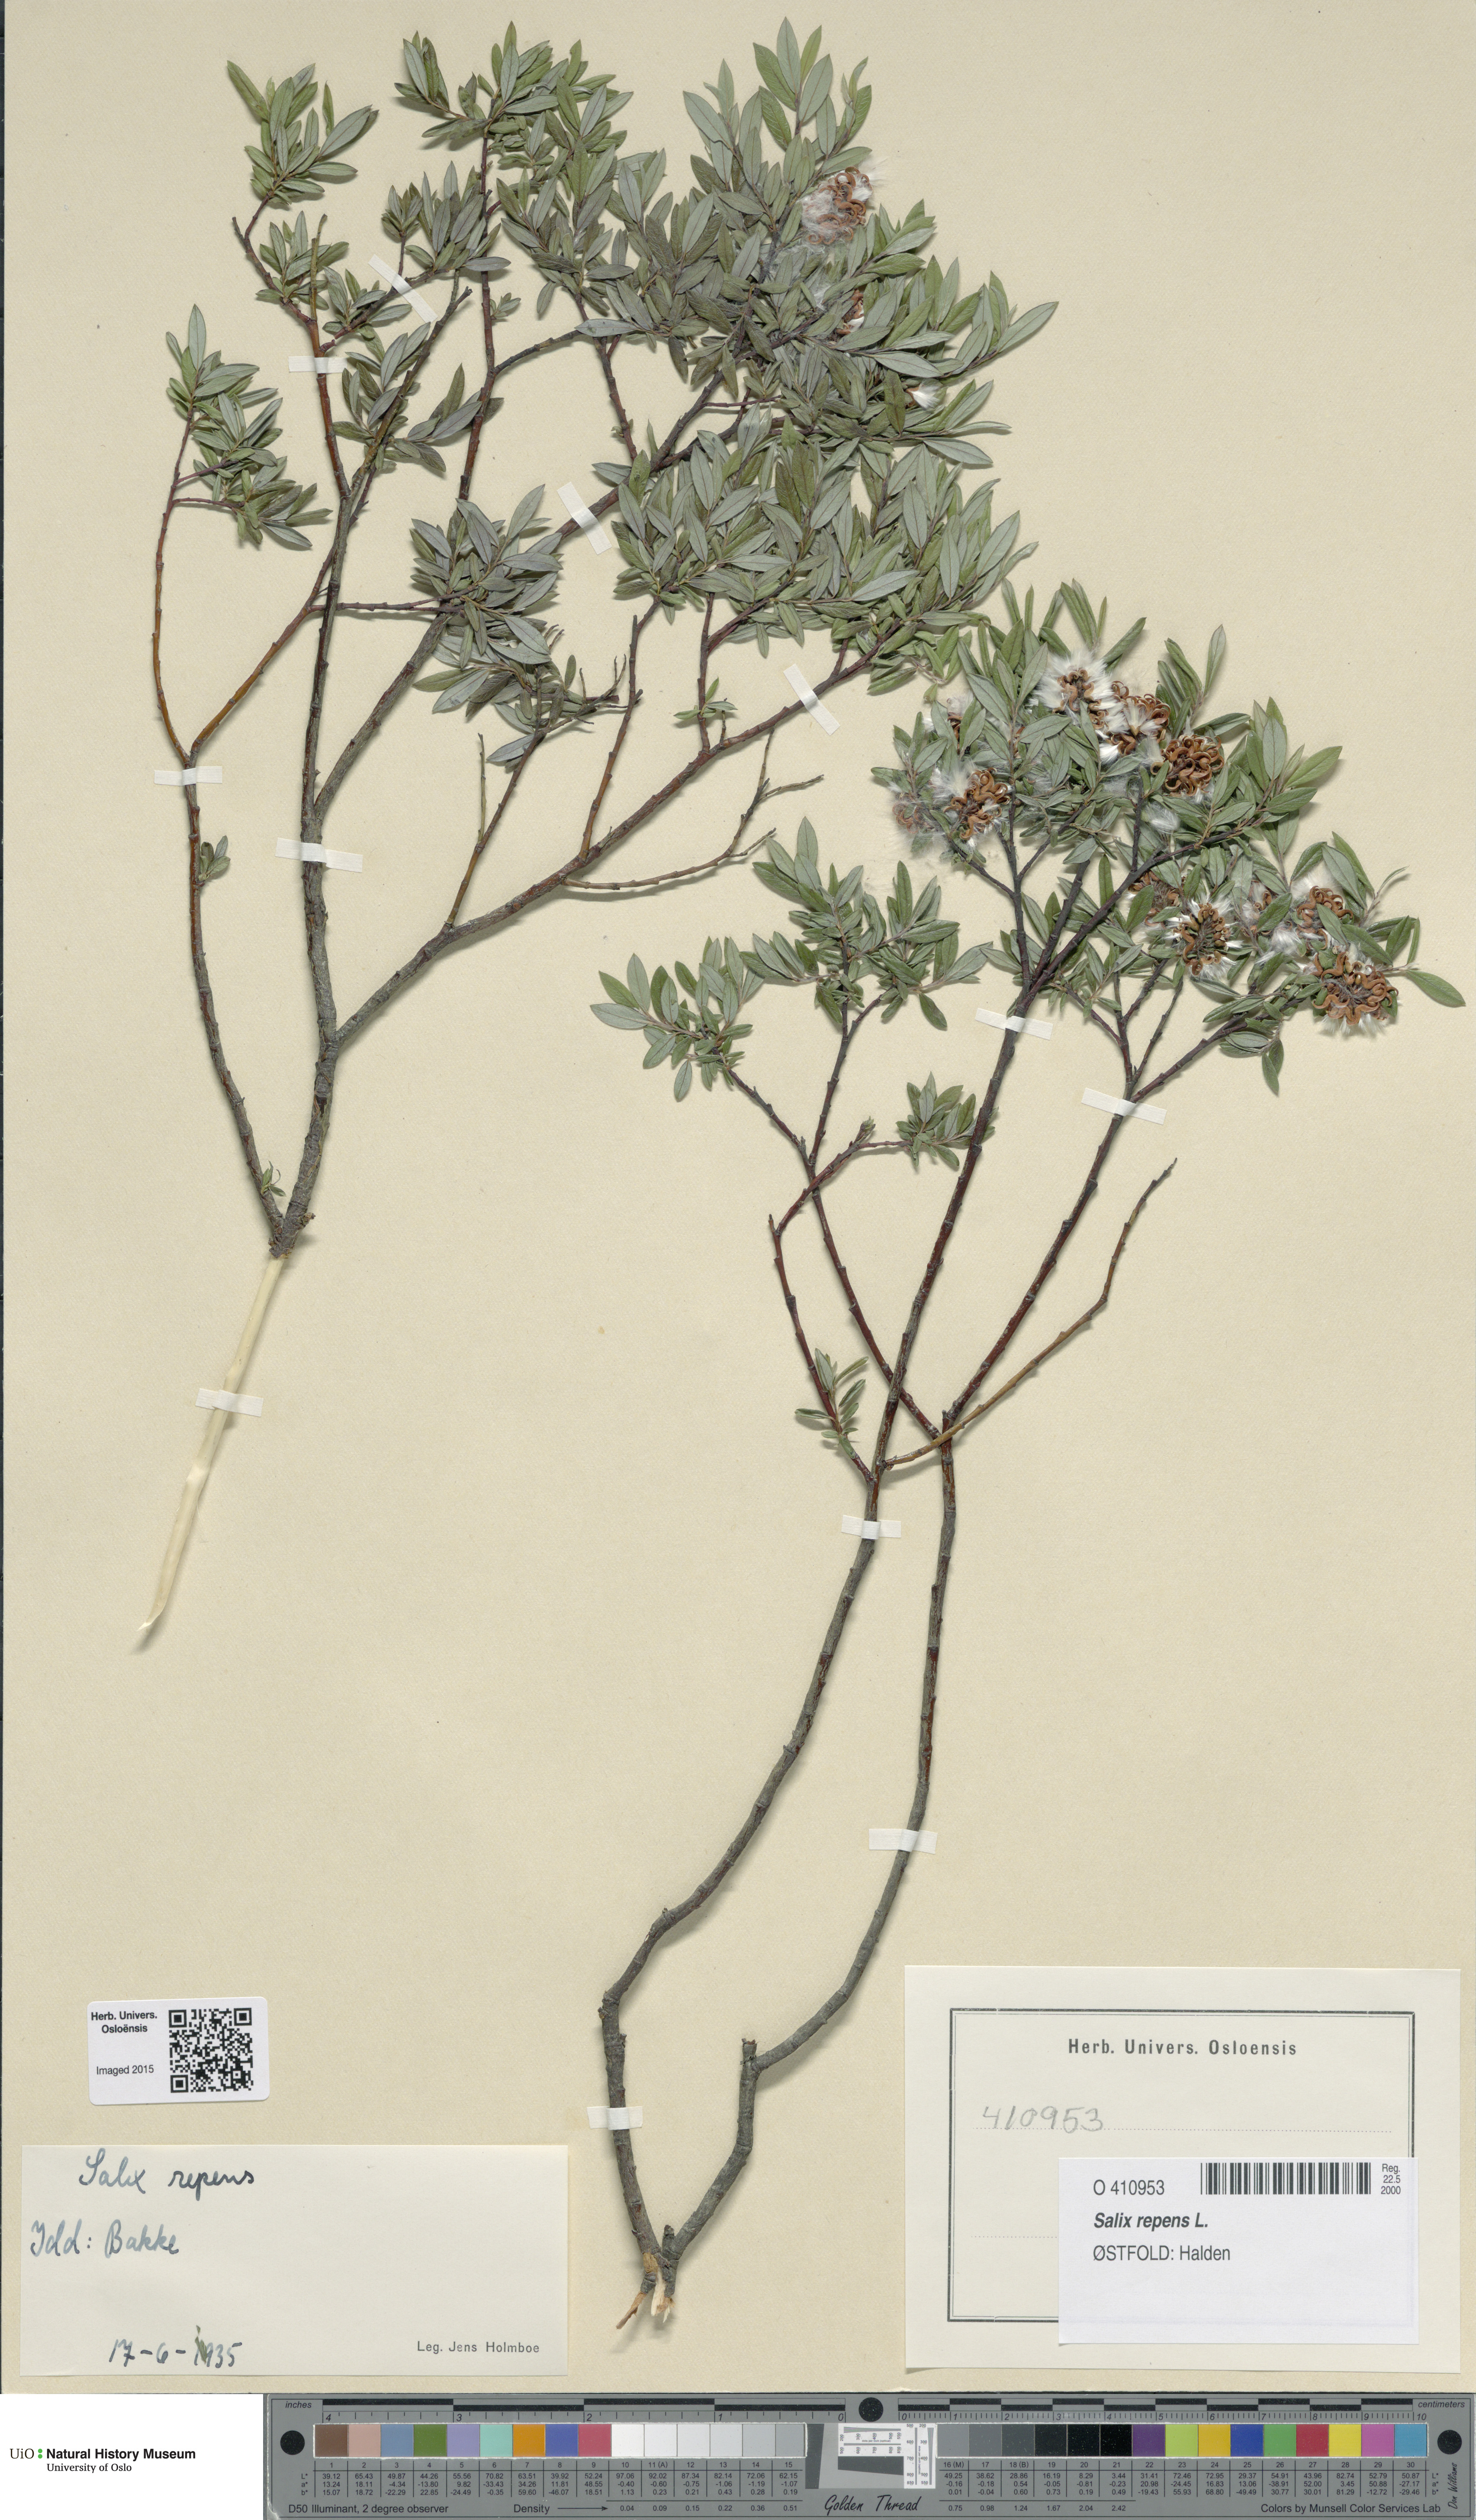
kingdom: Plantae
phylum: Tracheophyta
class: Magnoliopsida
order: Malpighiales
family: Salicaceae
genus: Salix
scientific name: Salix repens
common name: Creeping willow
